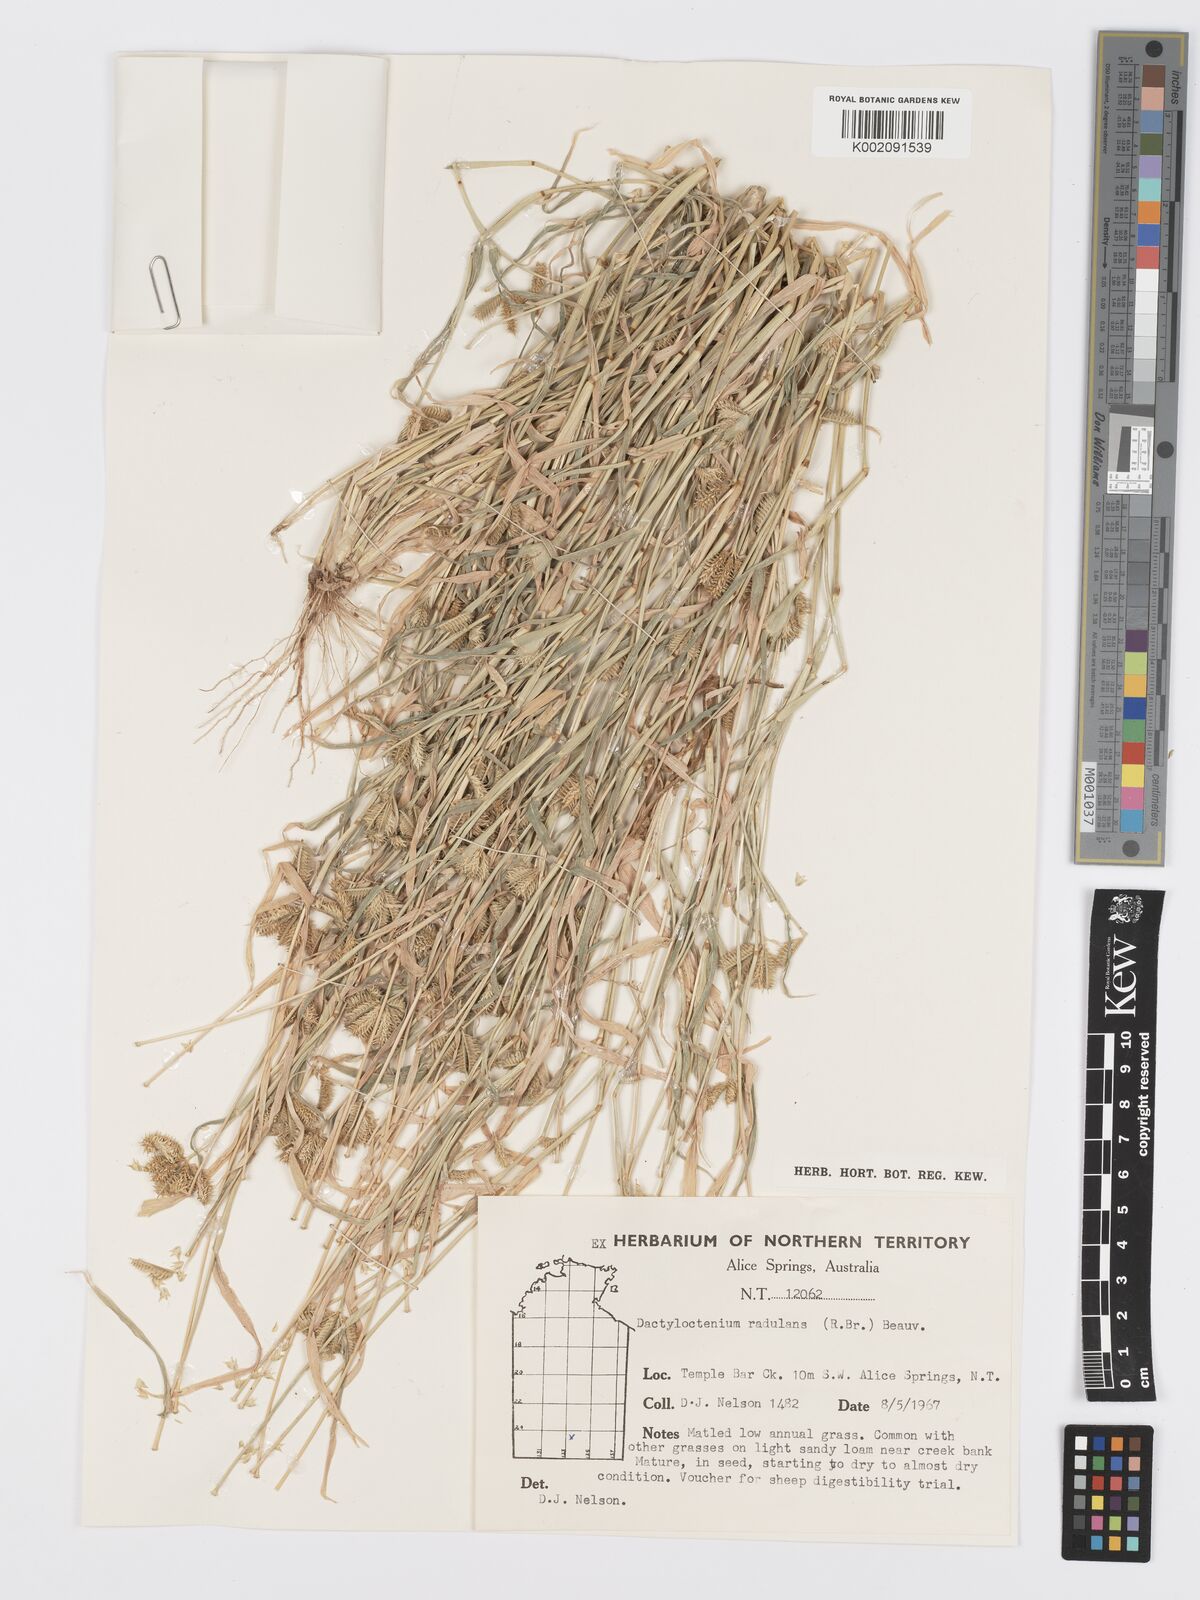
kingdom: Plantae
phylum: Tracheophyta
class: Liliopsida
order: Poales
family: Poaceae
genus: Dactyloctenium
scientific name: Dactyloctenium radulans
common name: Button-grass
